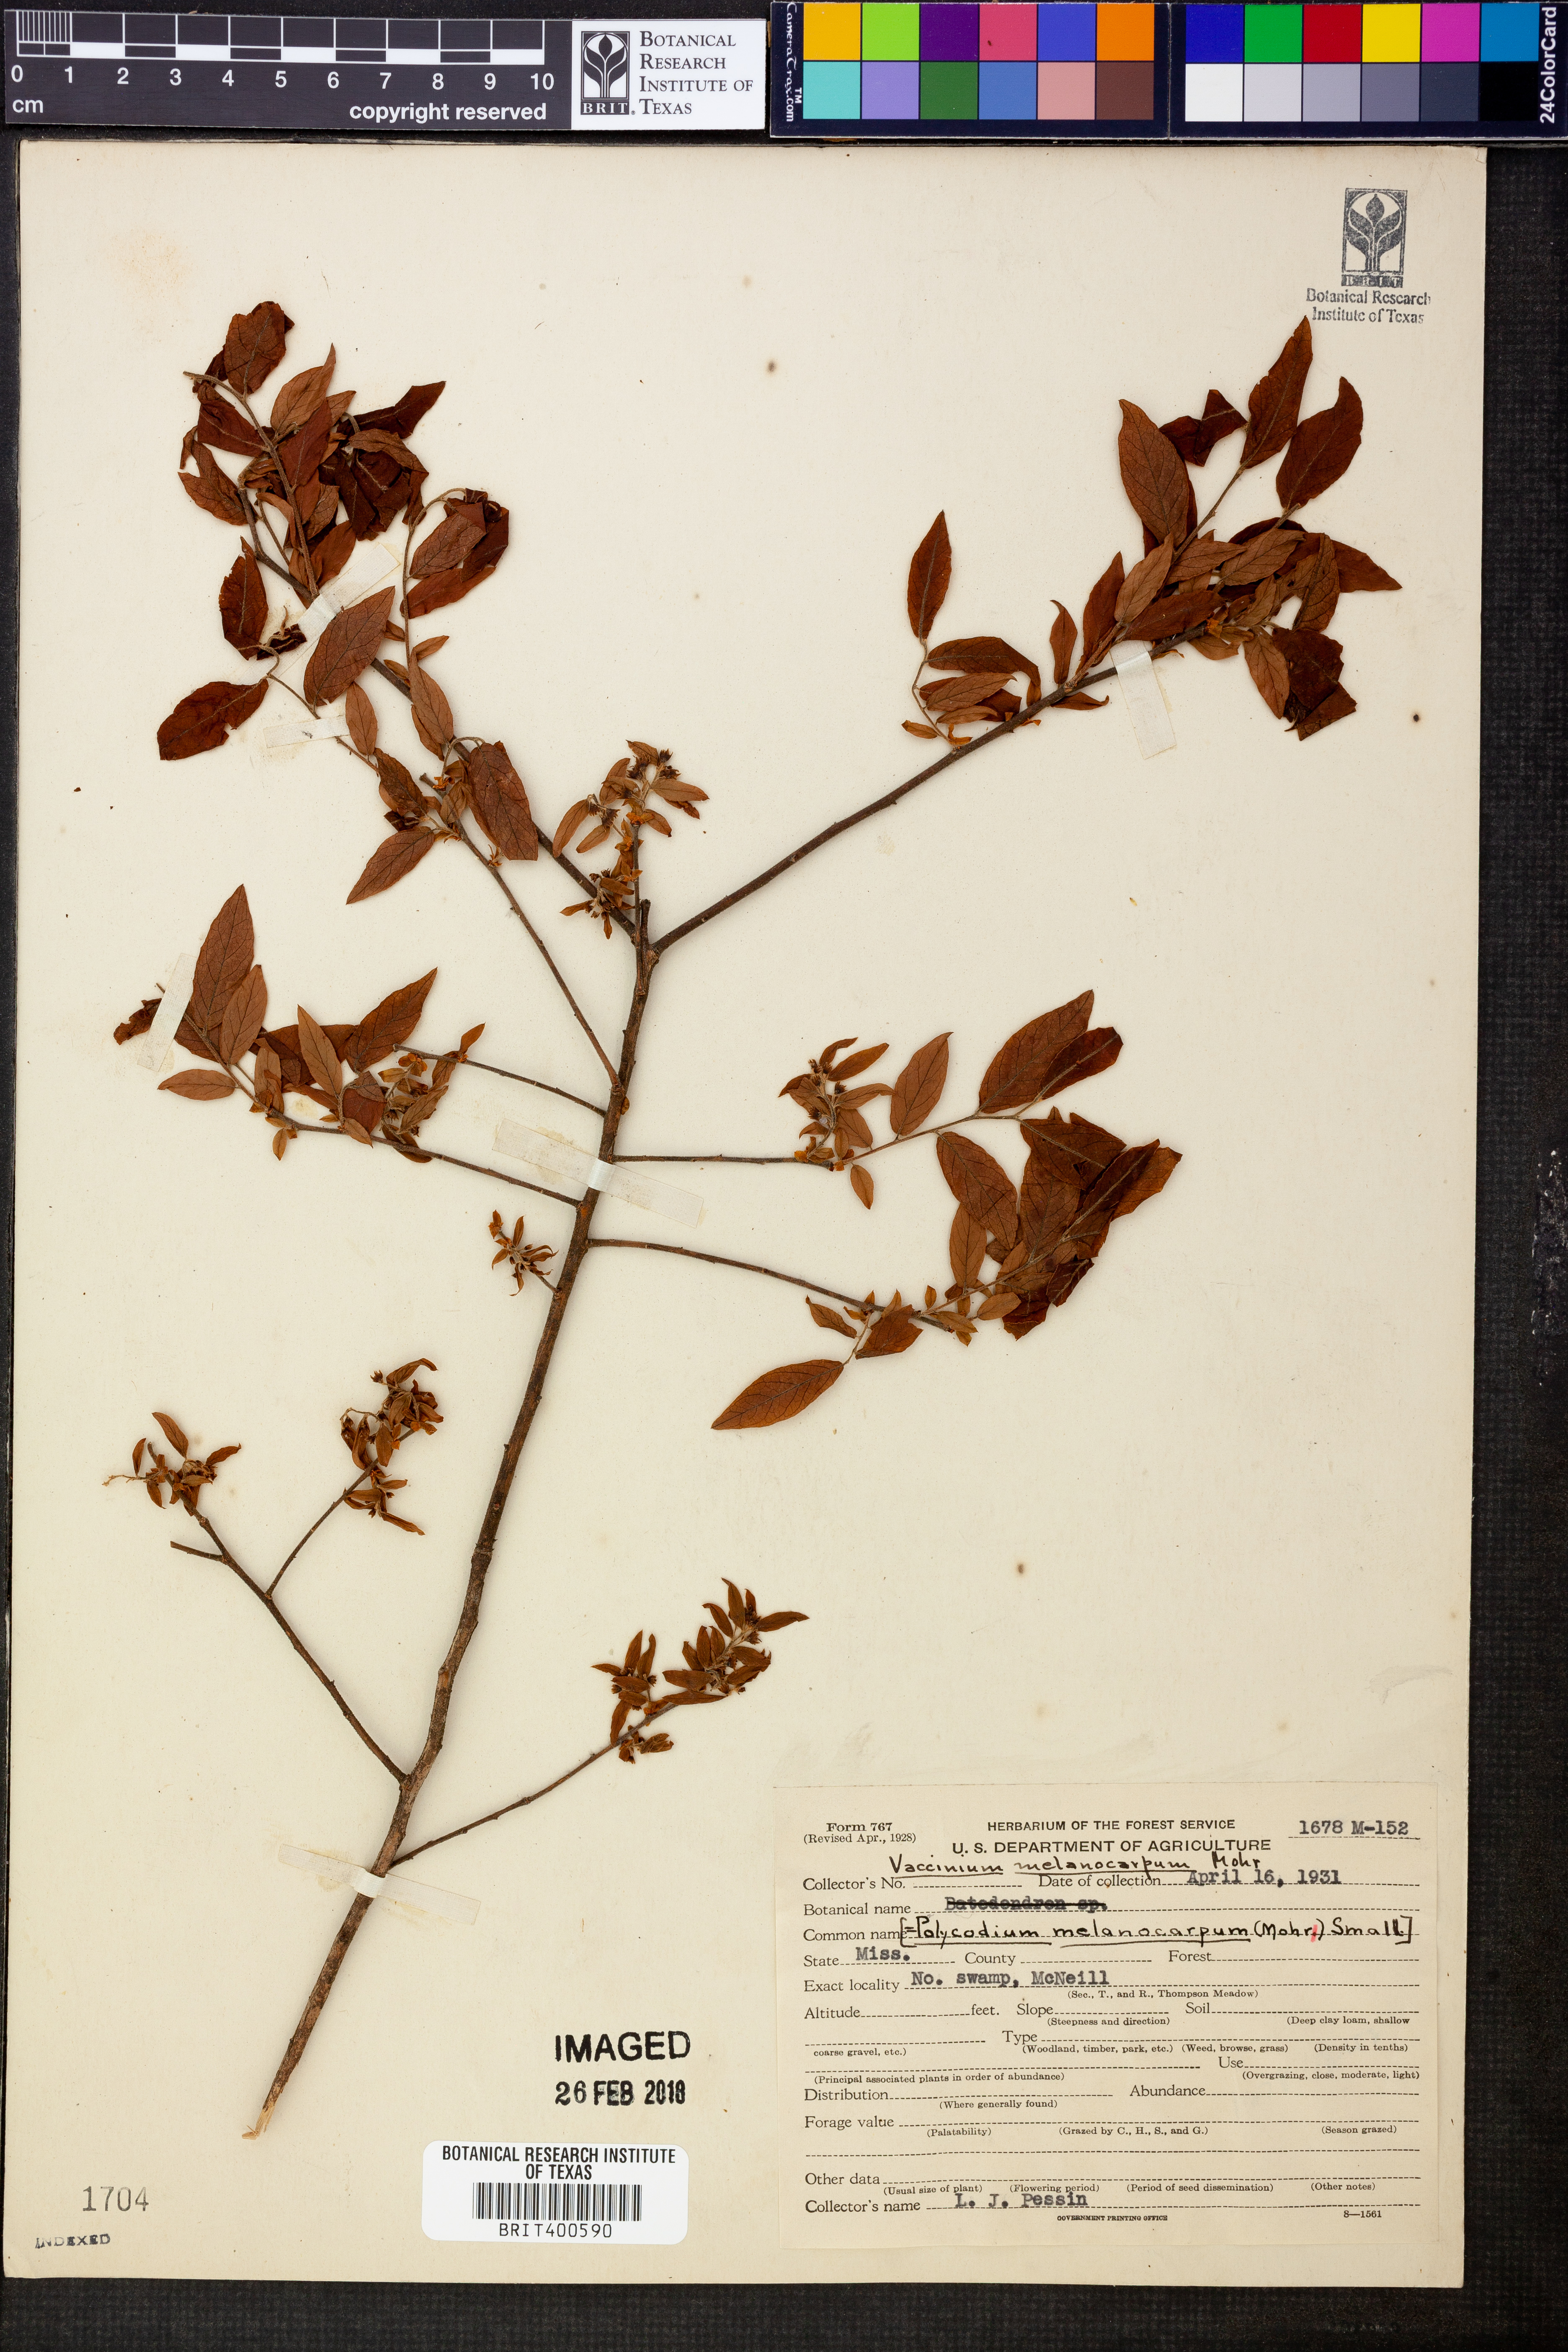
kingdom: Plantae
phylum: Tracheophyta
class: Magnoliopsida
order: Ericales
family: Ericaceae
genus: Vaccinium
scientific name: Vaccinium stamineum
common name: Deerberry
